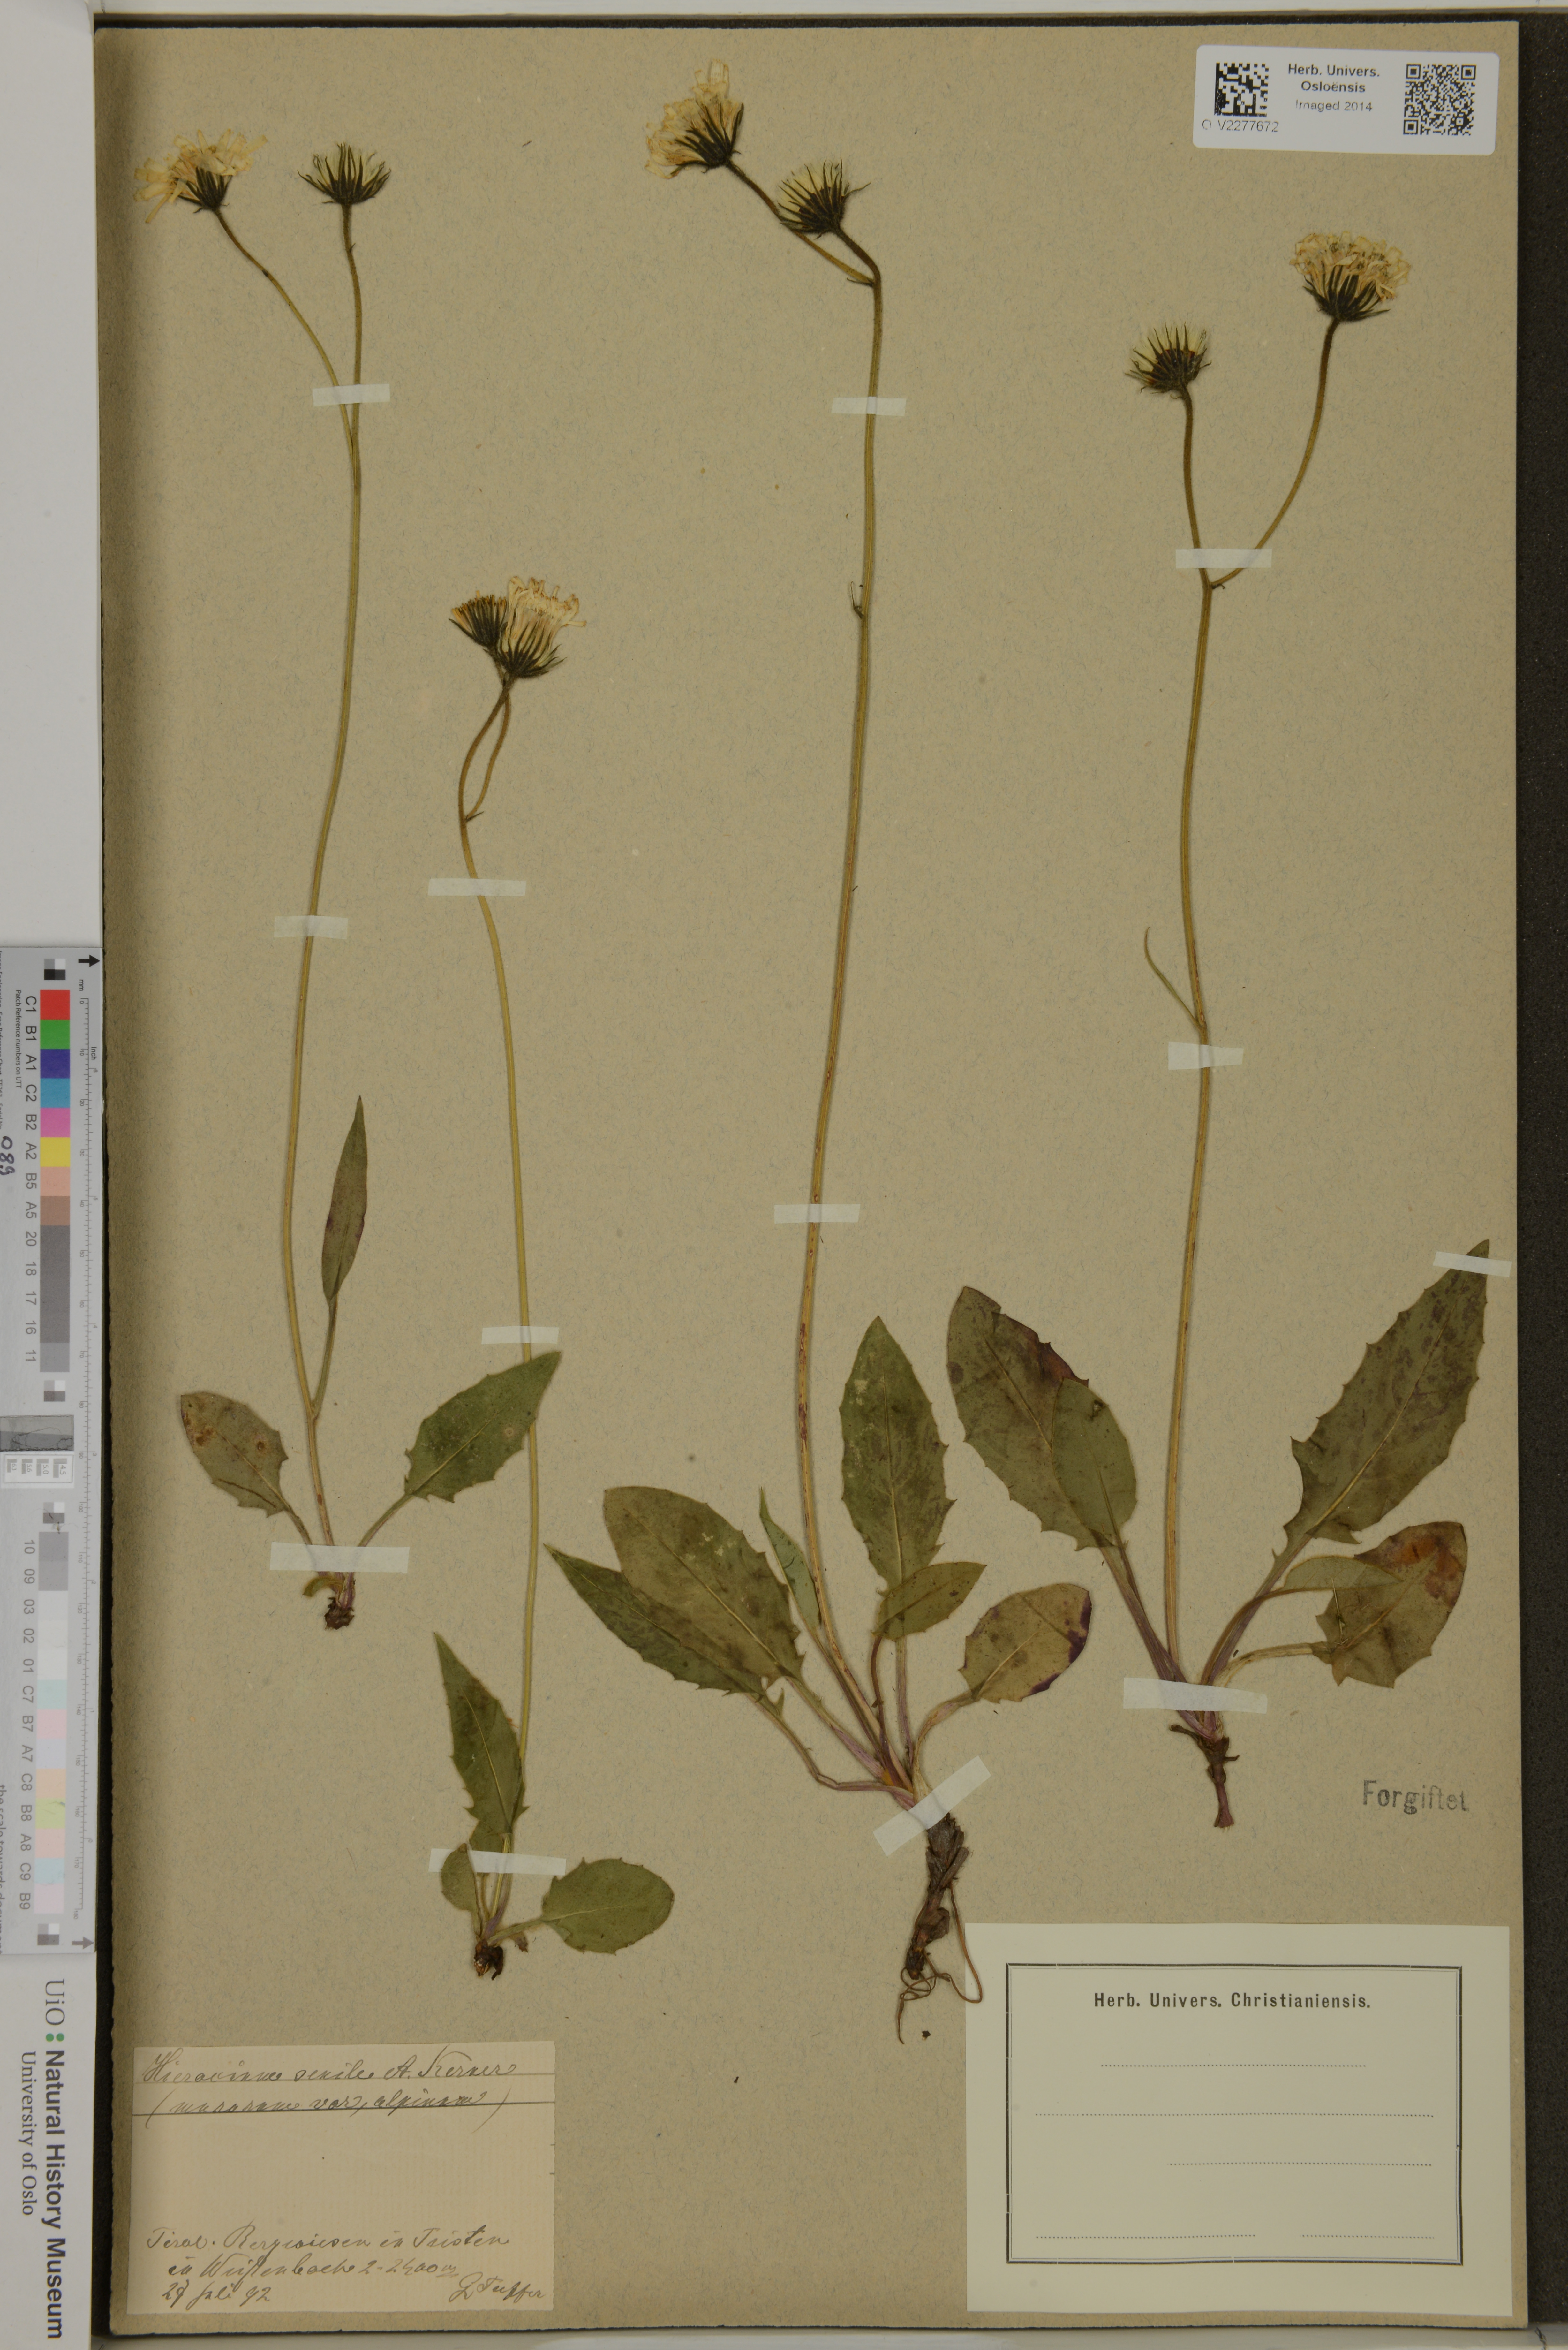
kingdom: Plantae
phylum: Tracheophyta
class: Magnoliopsida
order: Asterales
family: Asteraceae
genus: Hieracium
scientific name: Hieracium murorum
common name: Wall hawkweed
